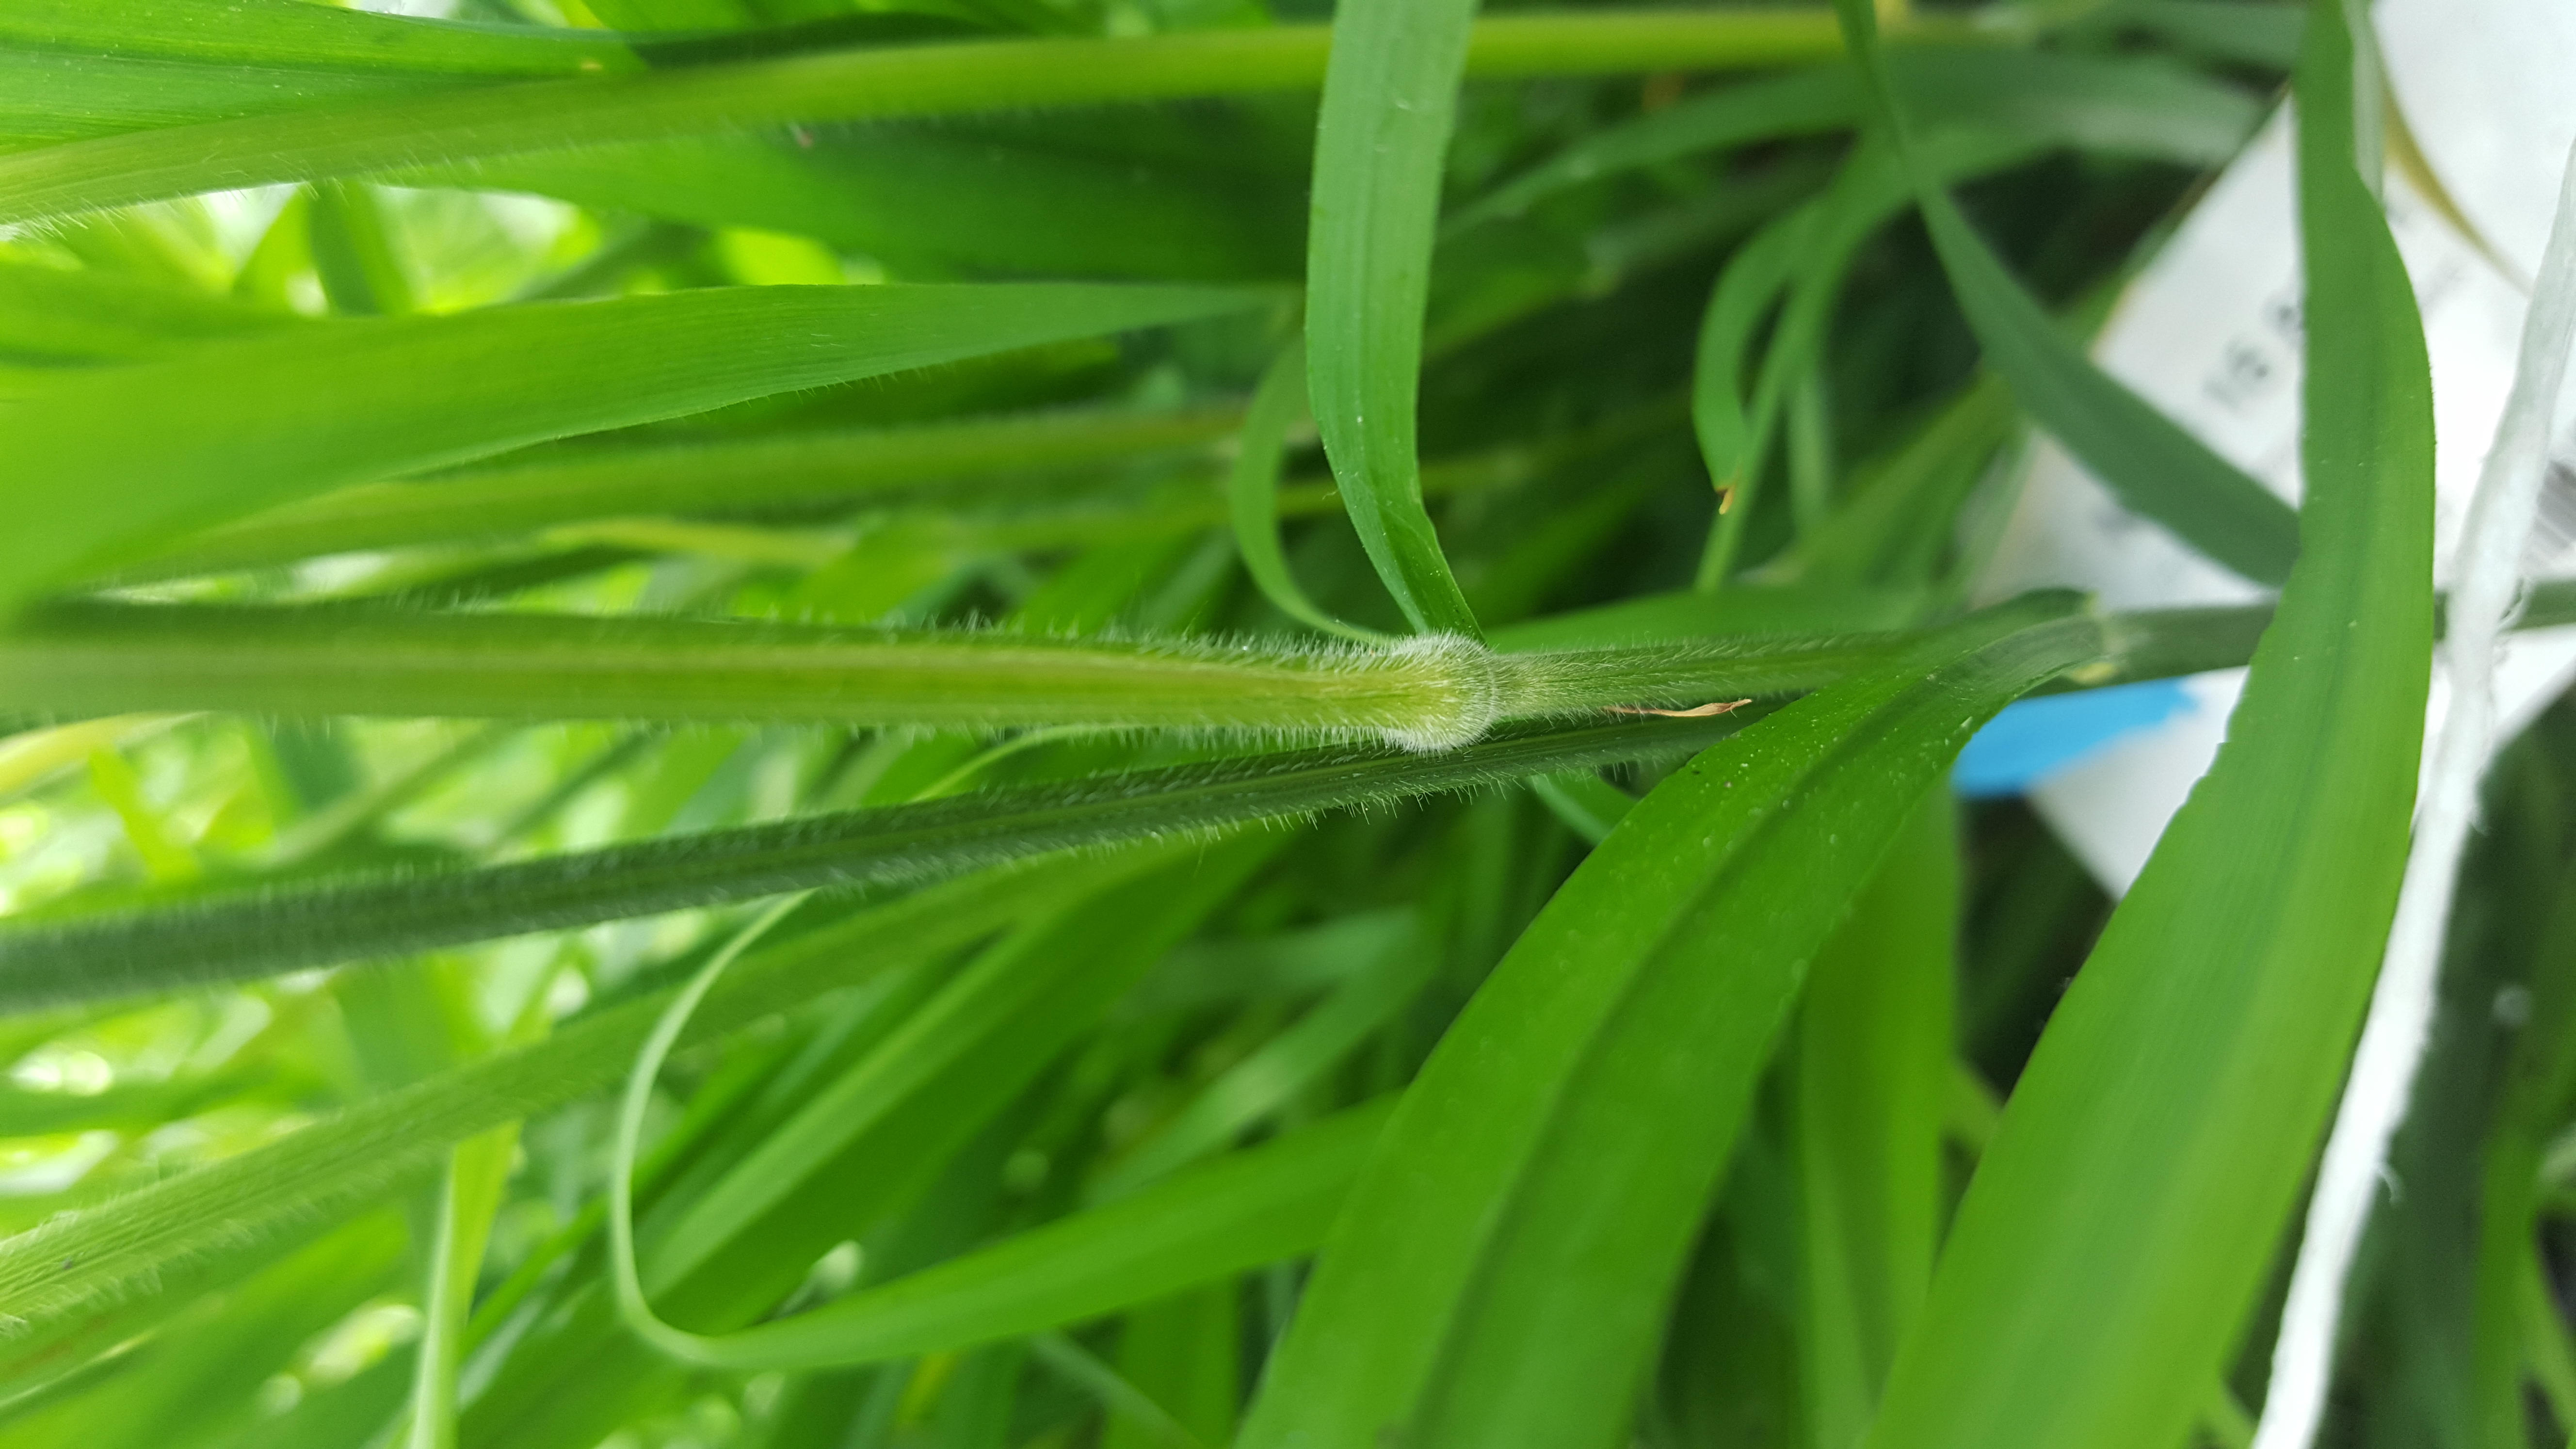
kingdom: Plantae
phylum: Tracheophyta
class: Liliopsida
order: Poales
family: Poaceae
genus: Hordelymus
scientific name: Hordelymus europaeus
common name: Wood-barley
